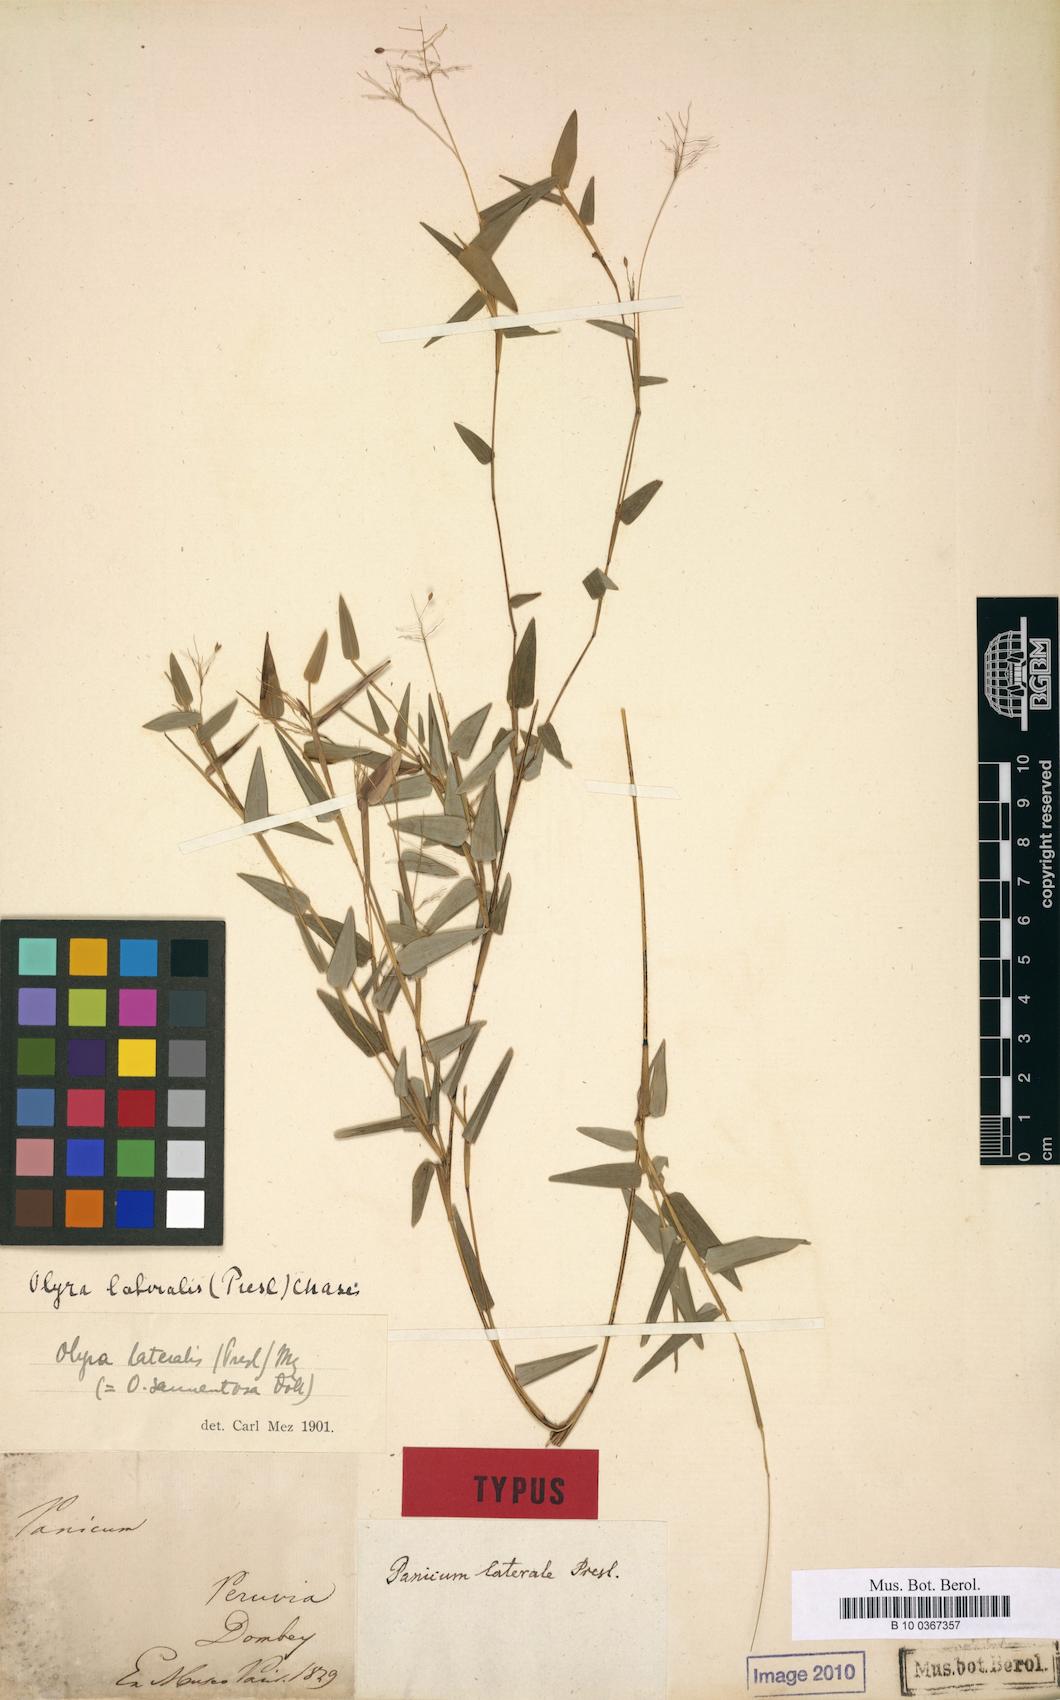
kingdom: Plantae
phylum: Tracheophyta
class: Liliopsida
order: Poales
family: Poaceae
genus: Parodiolyra
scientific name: Parodiolyra lateralis
